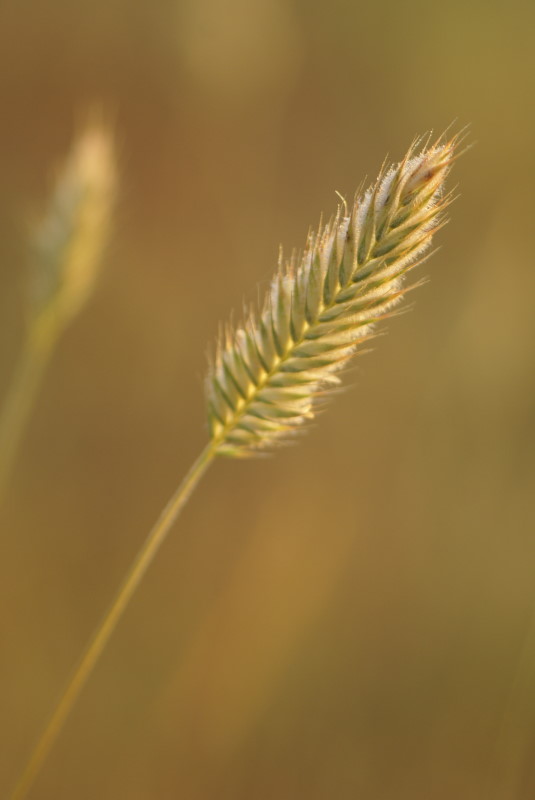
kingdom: Plantae
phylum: Tracheophyta
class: Liliopsida
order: Poales
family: Poaceae
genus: Eremopyrum
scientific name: Eremopyrum orientale
